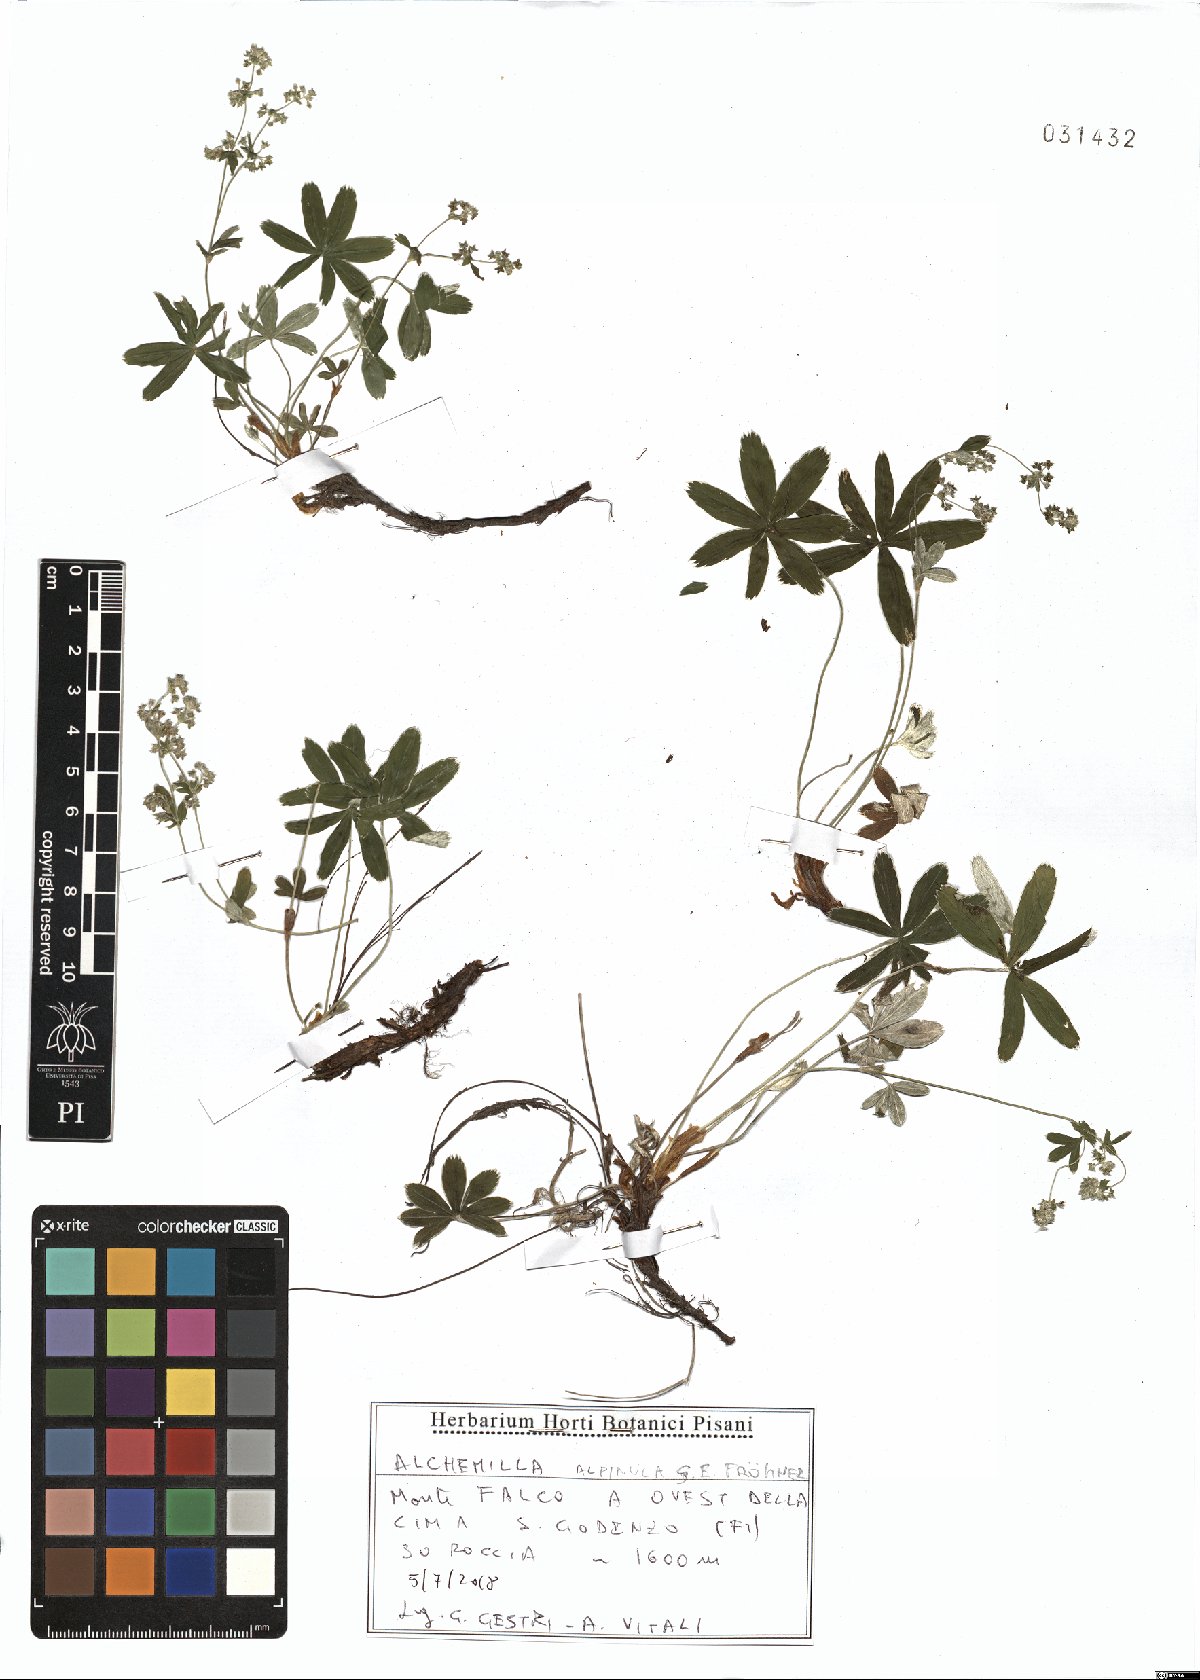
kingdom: Plantae
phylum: Tracheophyta
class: Magnoliopsida
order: Rosales
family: Rosaceae
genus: Alchemilla
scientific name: Alchemilla alpinula
